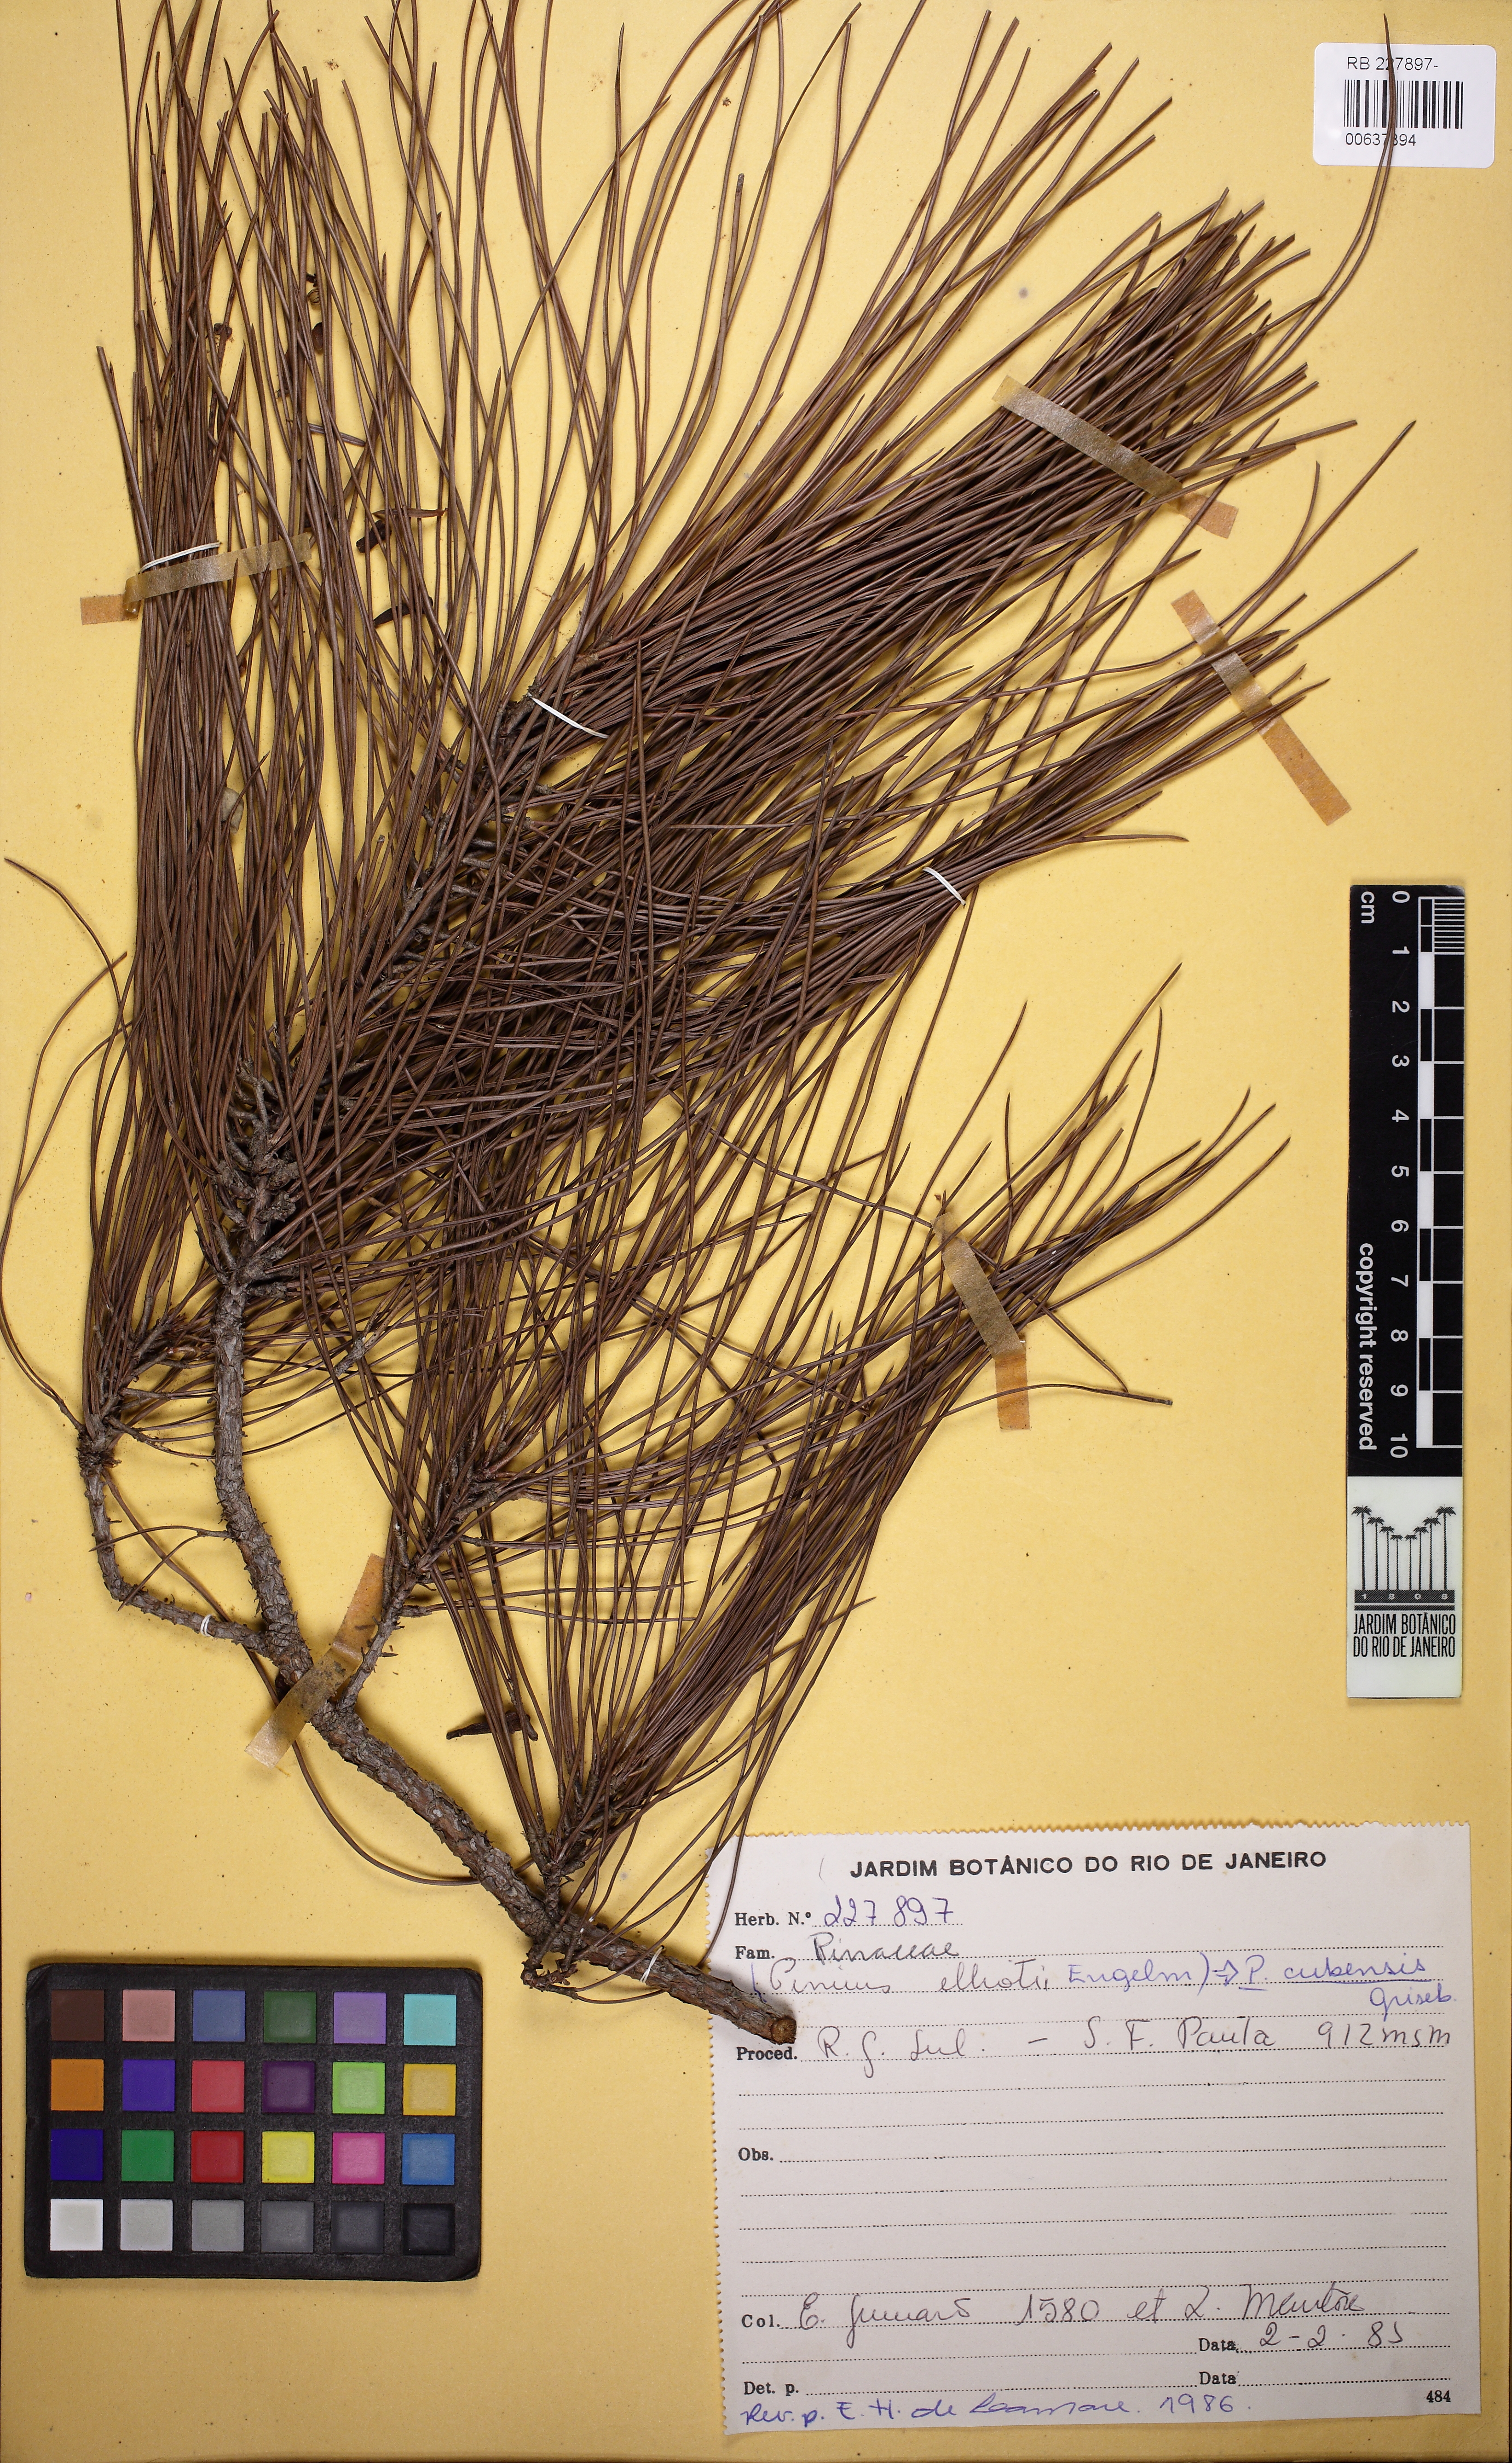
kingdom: Plantae
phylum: Tracheophyta
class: Pinopsida
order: Pinales
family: Pinaceae
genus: Pinus
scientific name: Pinus cubensis
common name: Cuban pine
